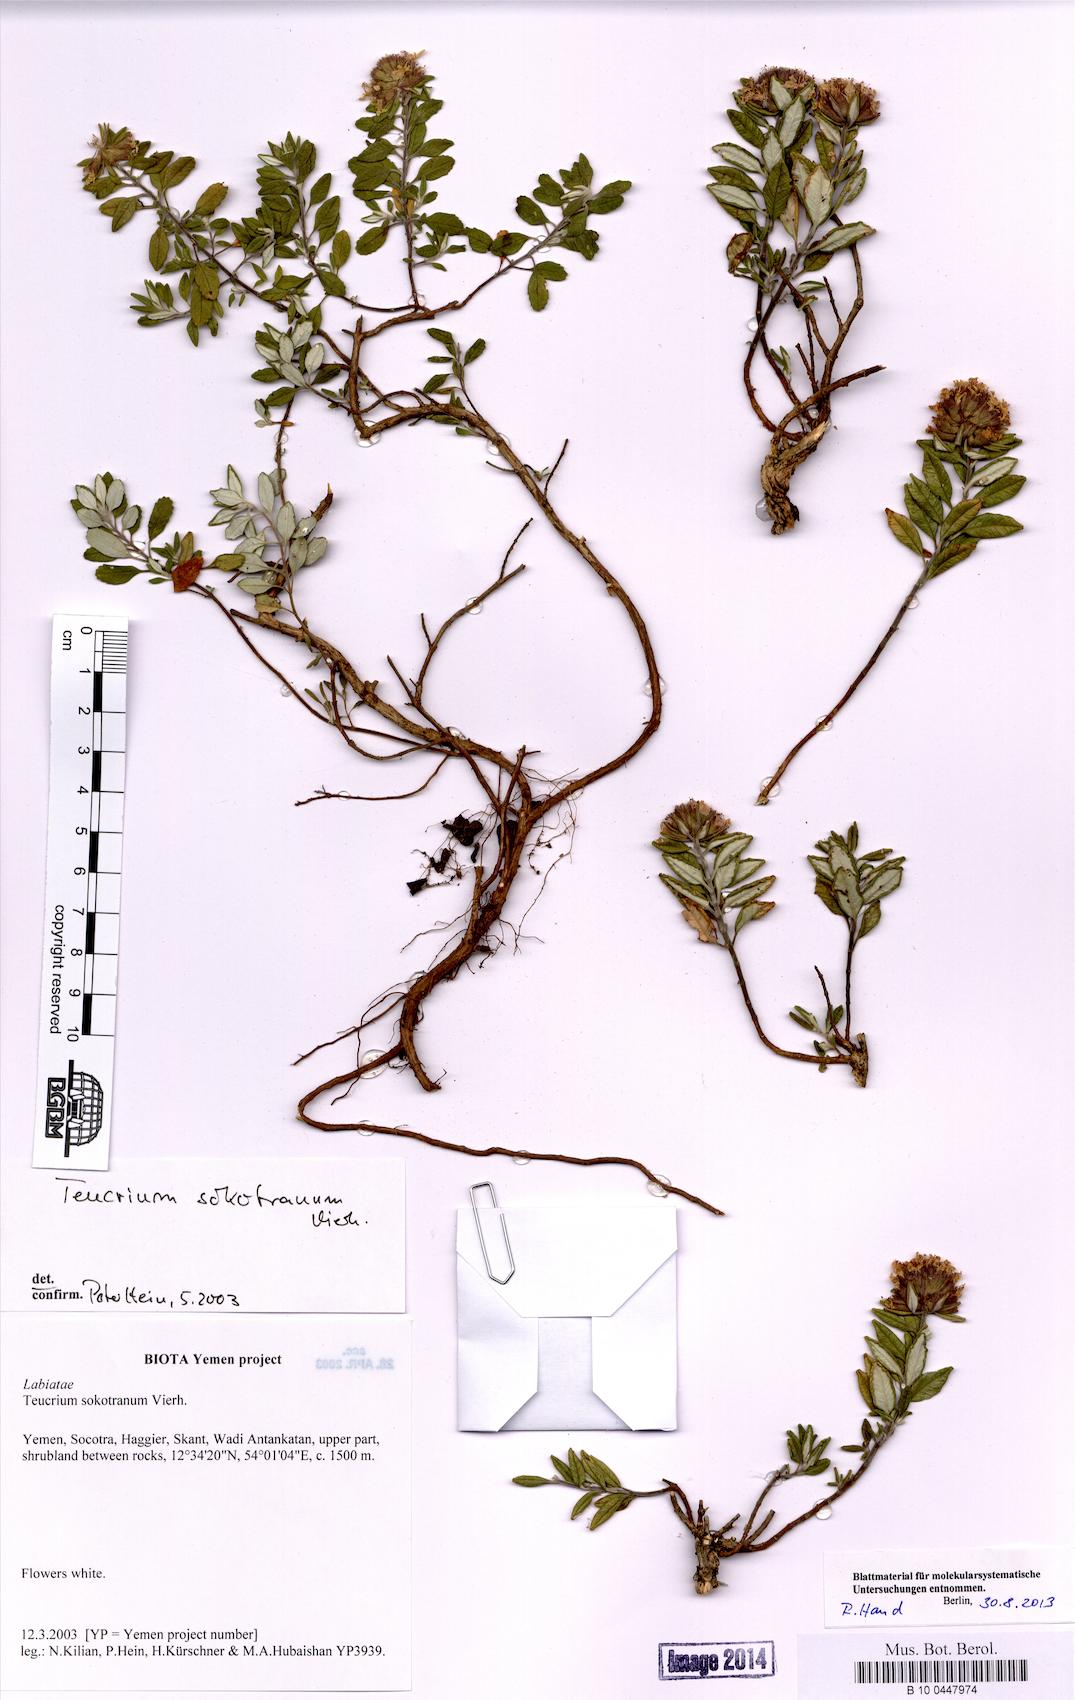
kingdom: Plantae
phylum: Tracheophyta
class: Magnoliopsida
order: Lamiales
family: Lamiaceae
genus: Teucrium
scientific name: Teucrium socotranum
